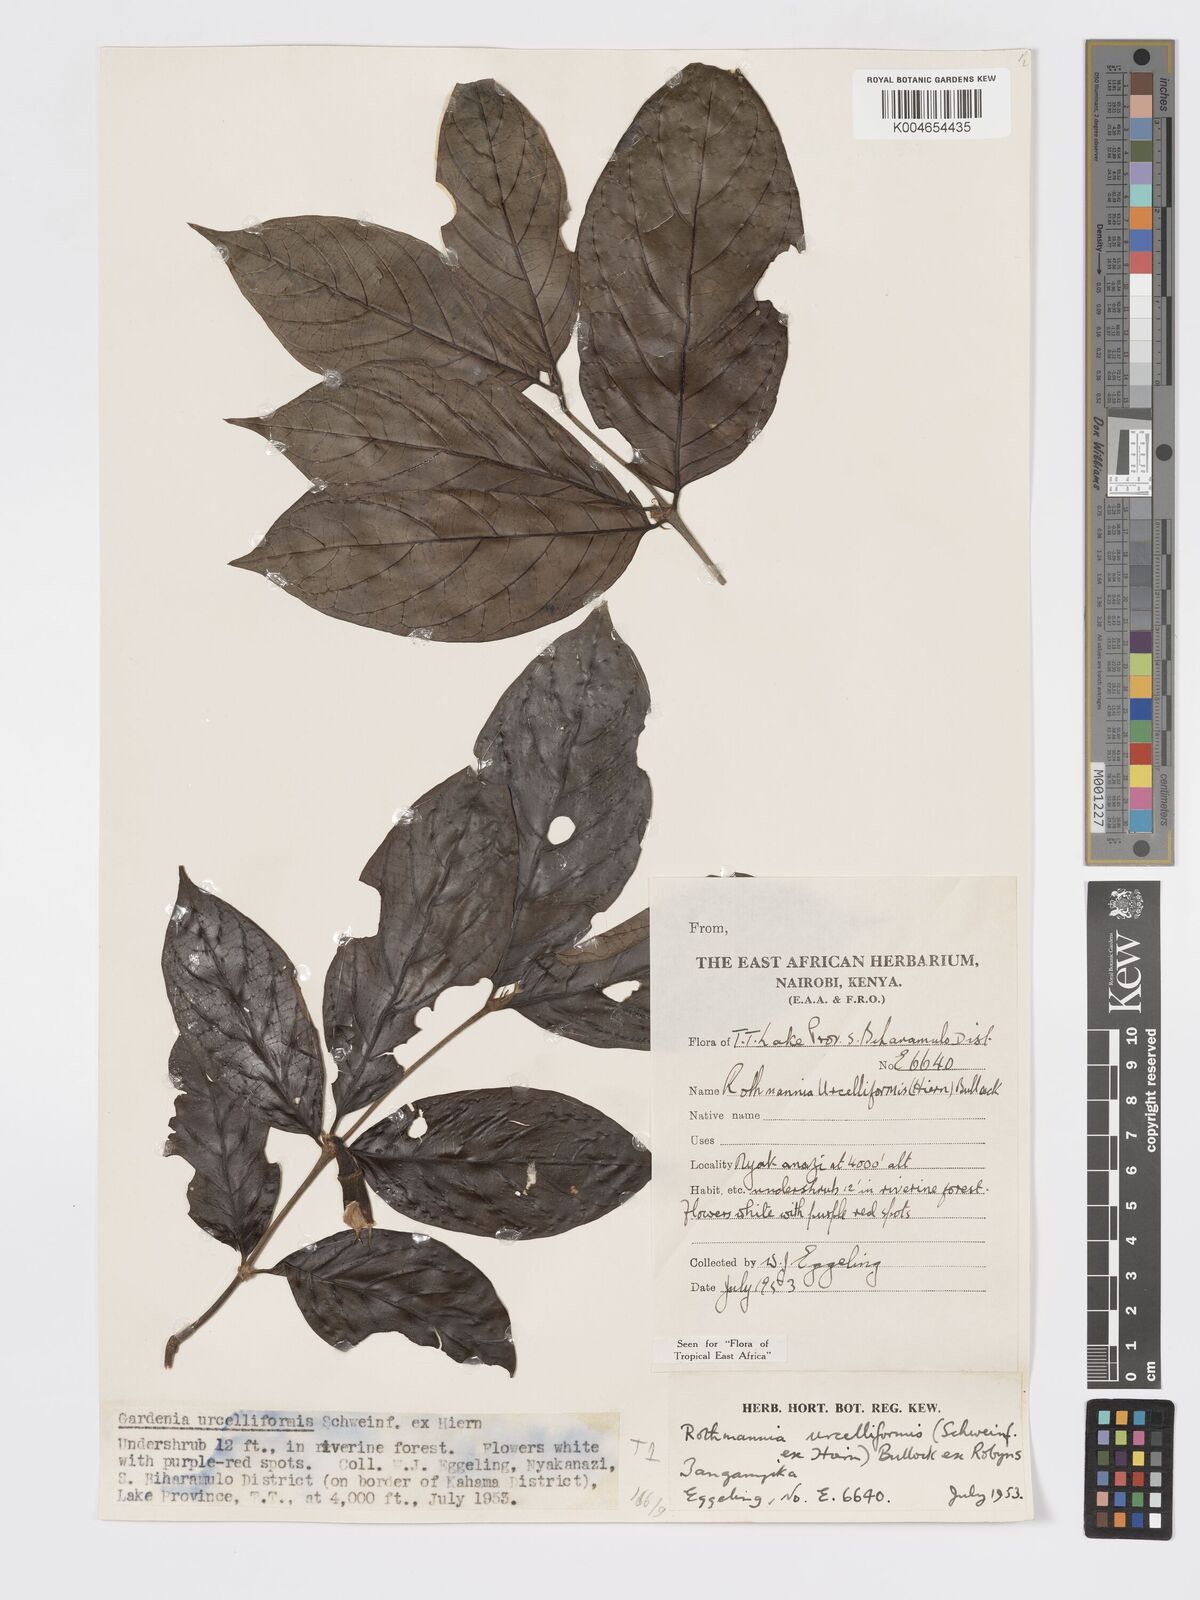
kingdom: Plantae
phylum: Tracheophyta
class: Magnoliopsida
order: Gentianales
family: Rubiaceae
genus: Rothmannia
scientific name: Rothmannia urcelliformis
